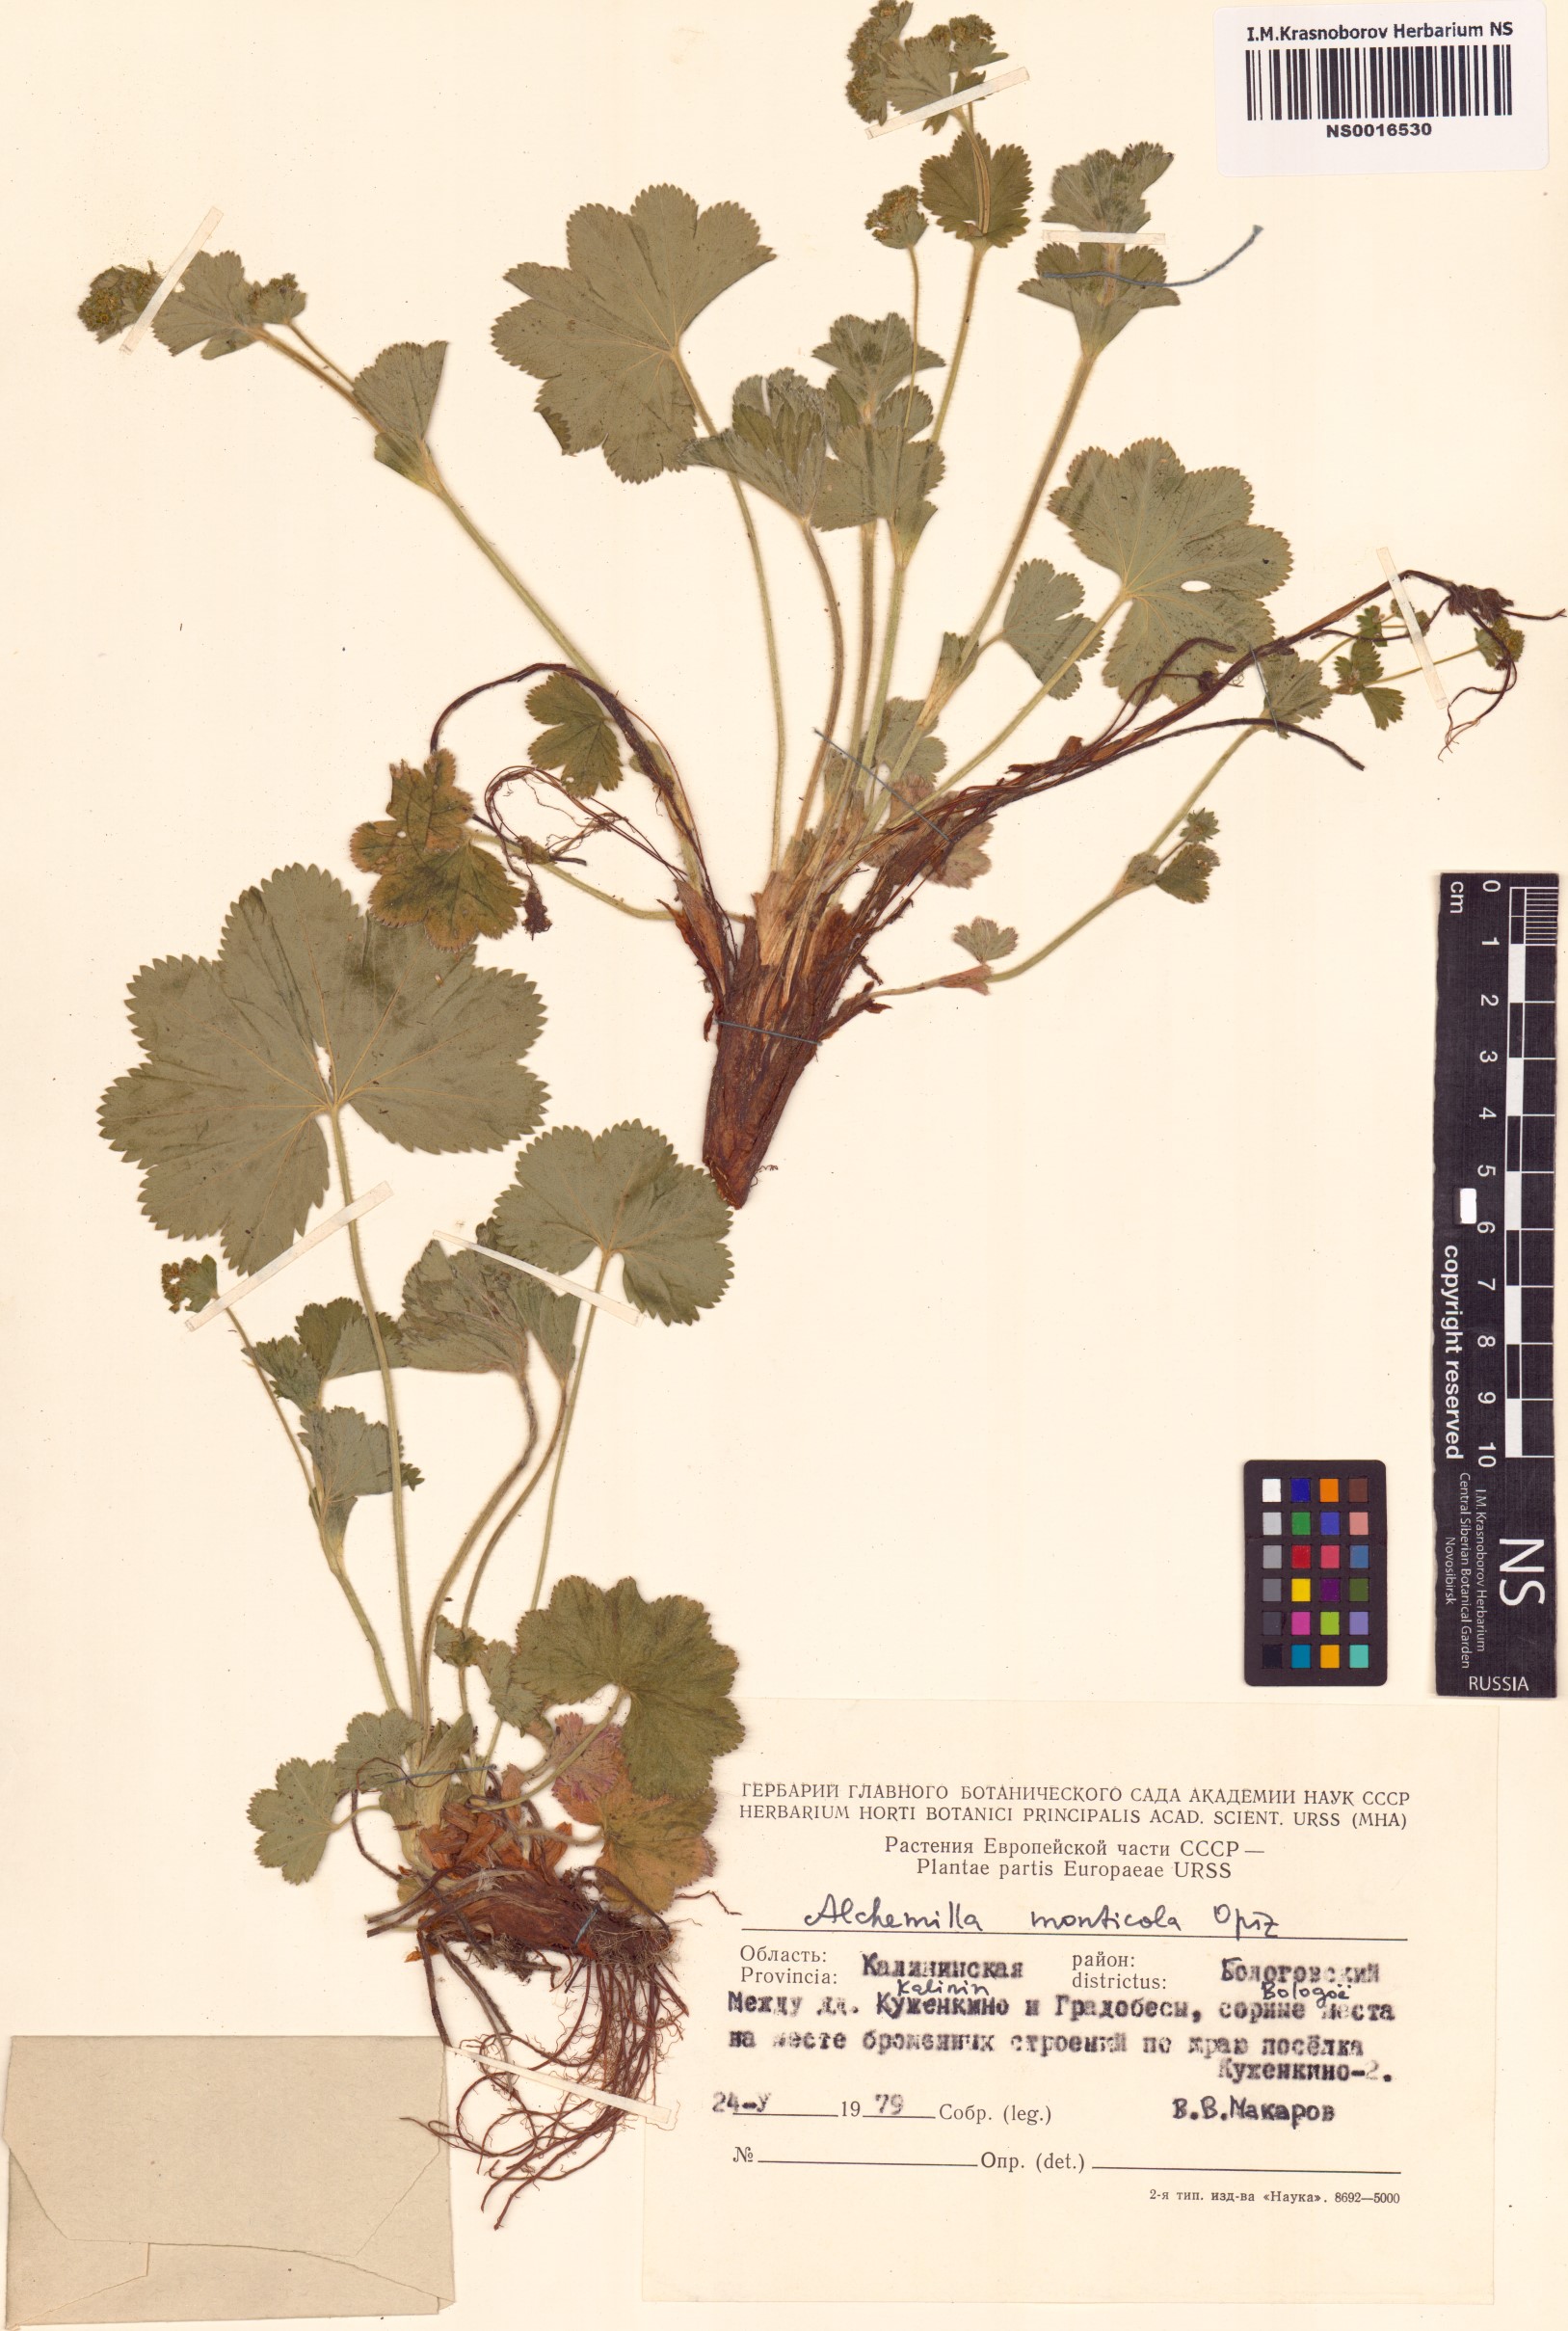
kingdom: Plantae
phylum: Tracheophyta
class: Magnoliopsida
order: Rosales
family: Rosaceae
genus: Alchemilla
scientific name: Alchemilla monticola
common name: Hairy lady's mantle
